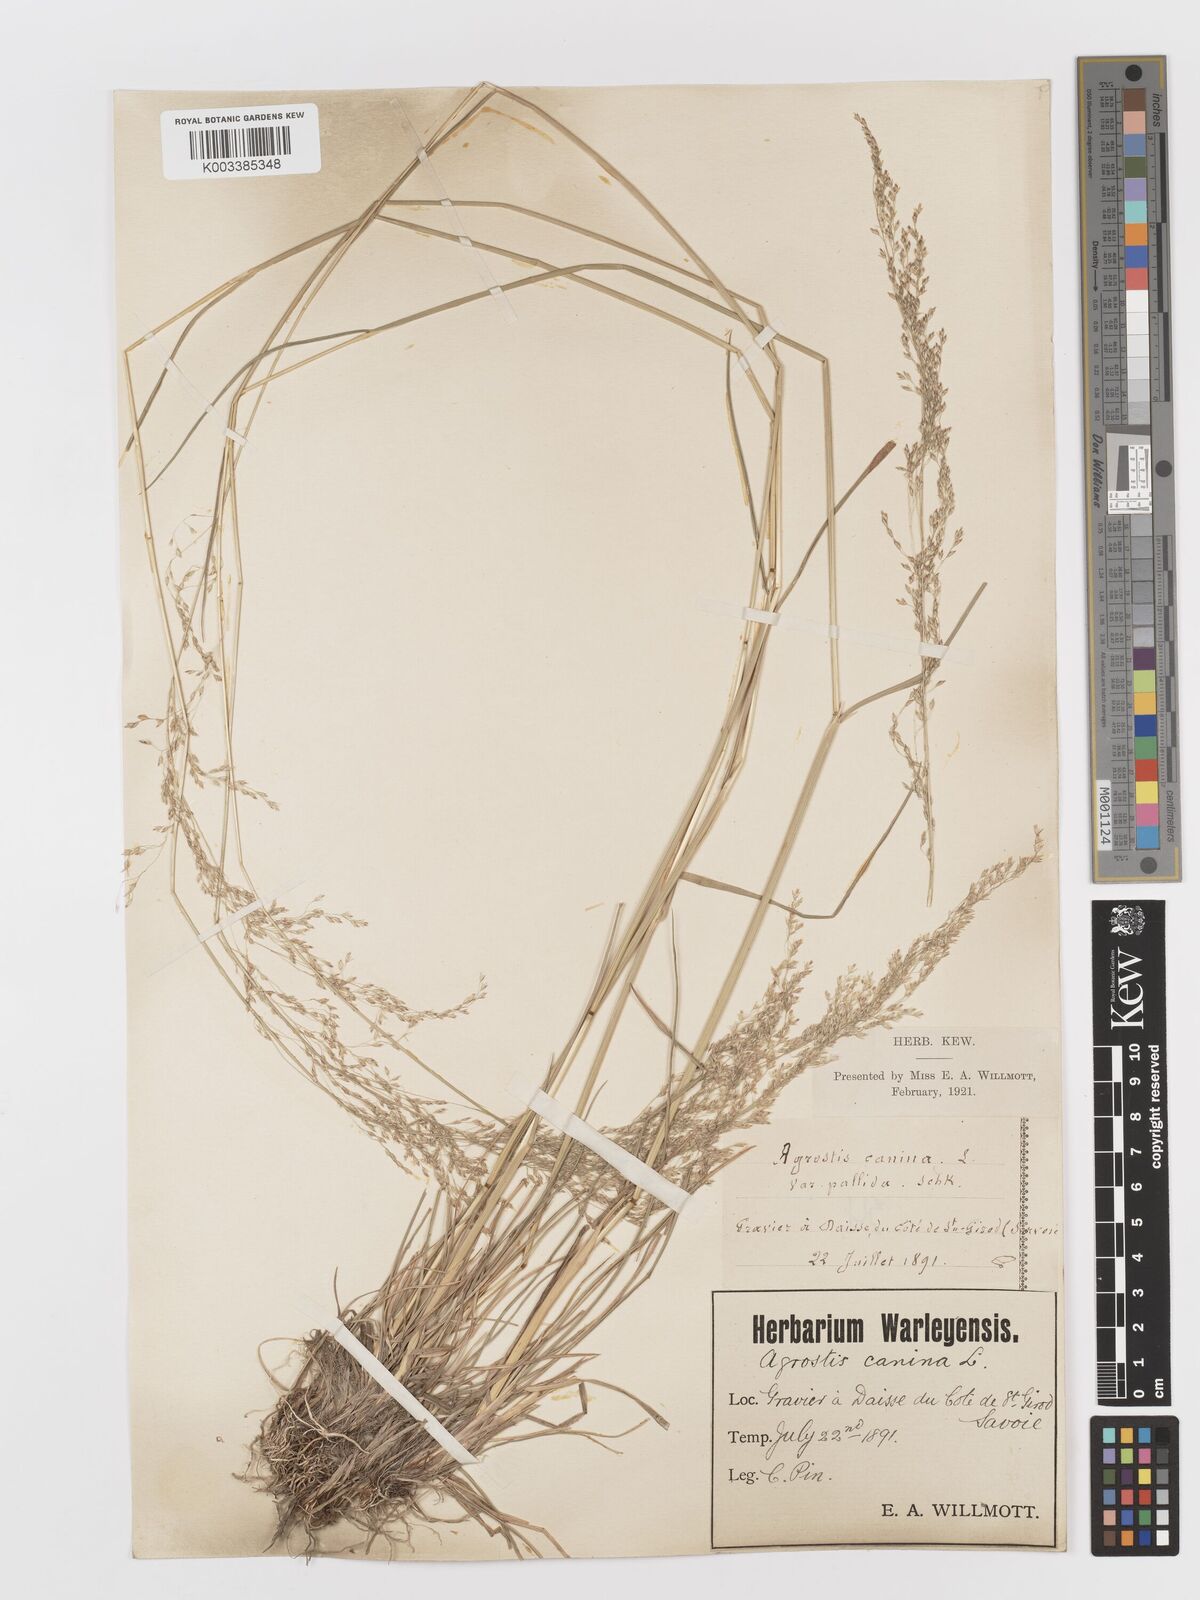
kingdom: Plantae
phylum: Tracheophyta
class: Liliopsida
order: Poales
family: Poaceae
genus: Deschampsia
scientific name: Deschampsia cespitosa
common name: Tufted hair-grass
